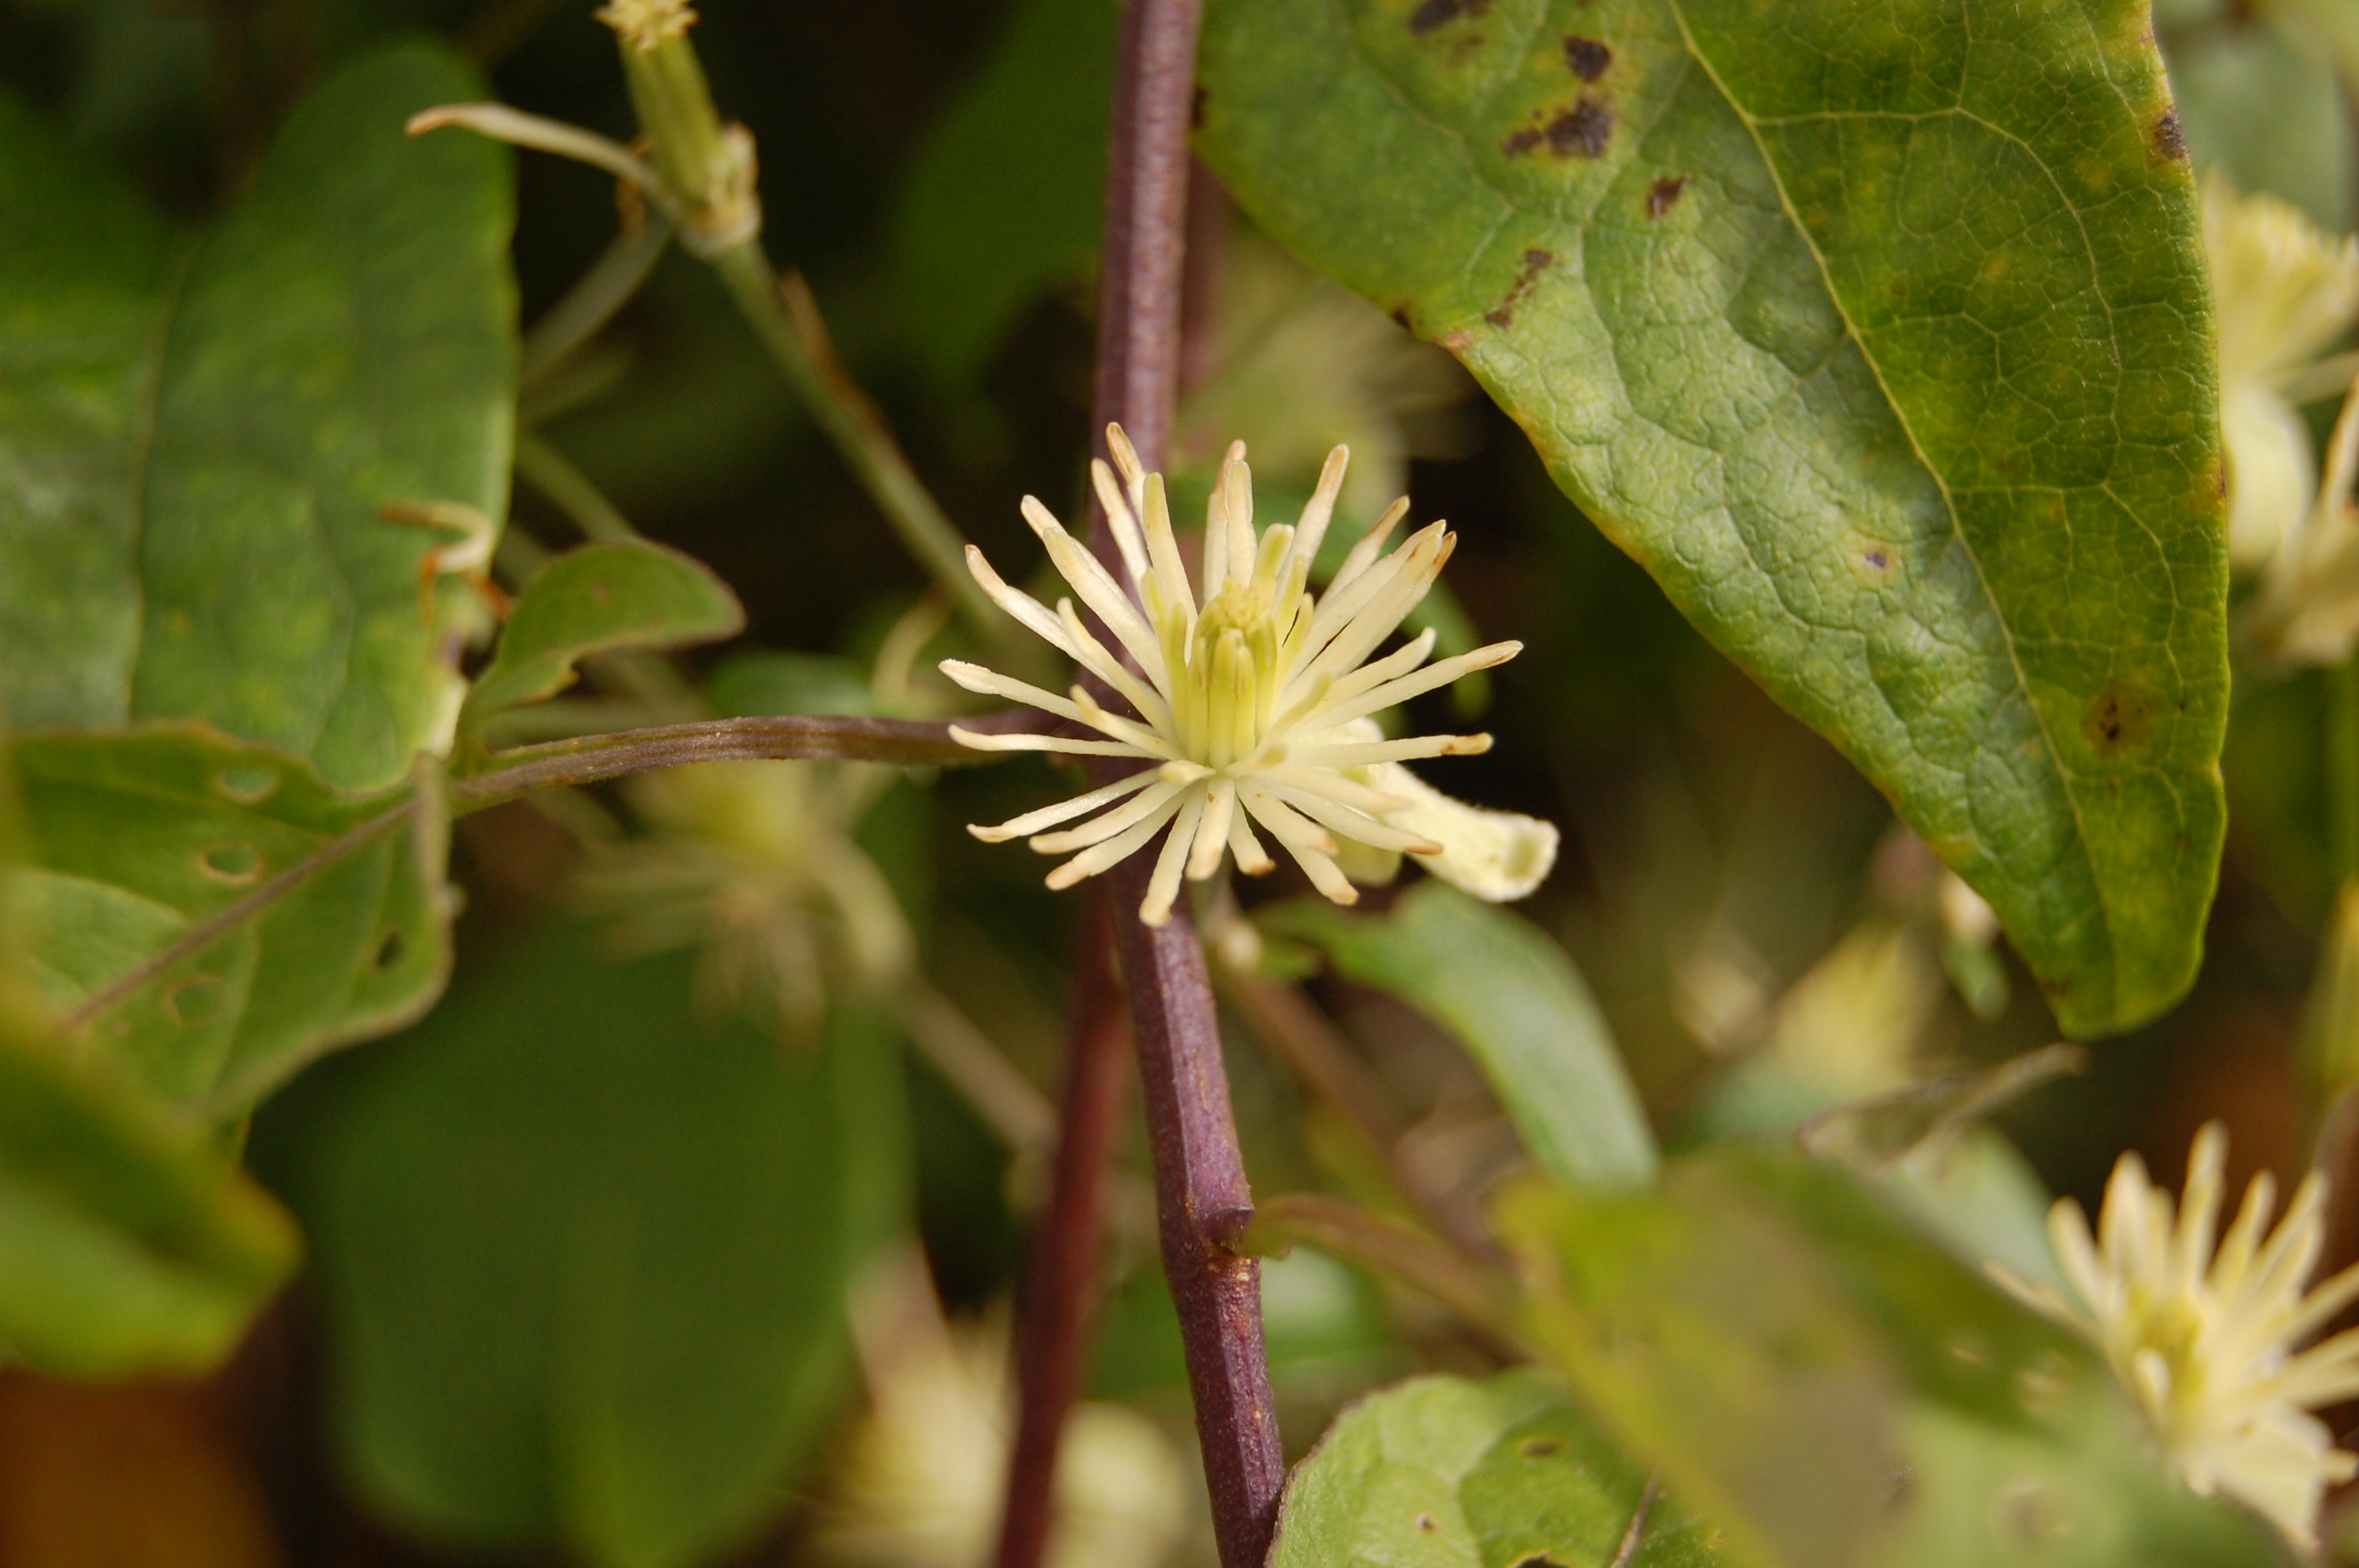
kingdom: Plantae
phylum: Tracheophyta
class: Magnoliopsida
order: Ranunculales
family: Ranunculaceae
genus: Clematis
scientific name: Clematis vitalba
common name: Evergreen clematis
